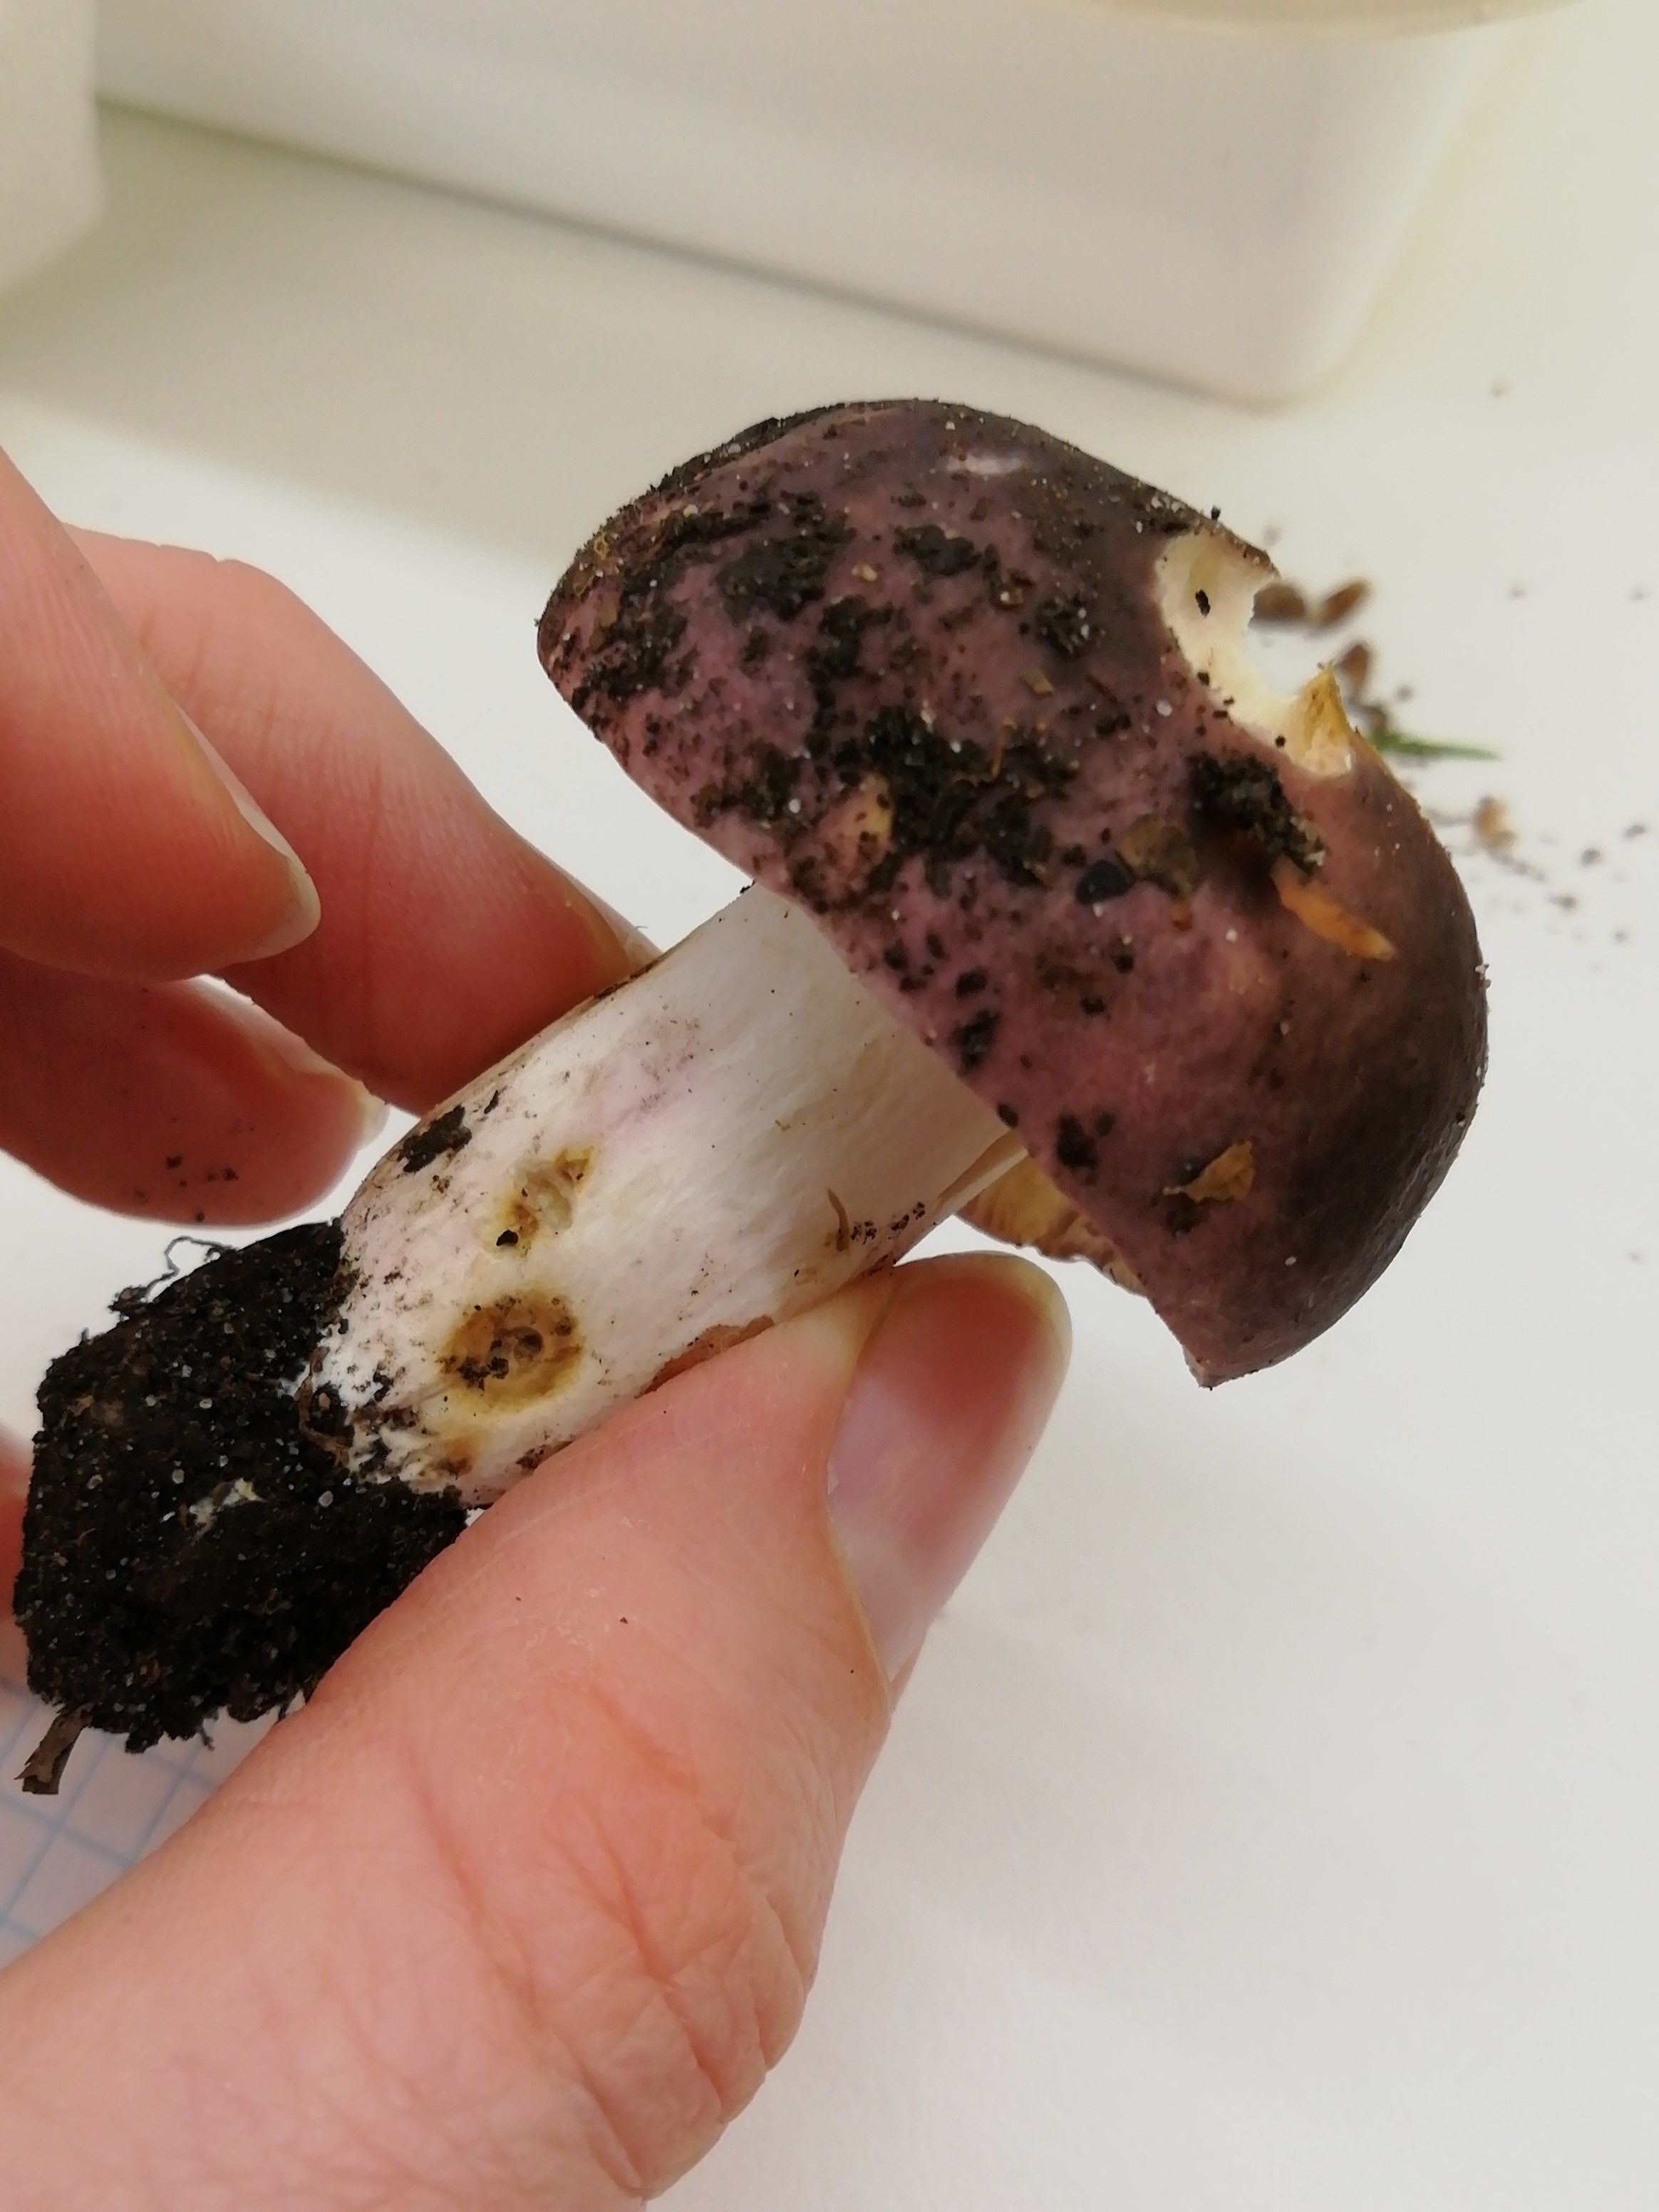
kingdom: Fungi
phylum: Basidiomycota
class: Agaricomycetes
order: Russulales
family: Russulaceae
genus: Russula
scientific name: Russula
